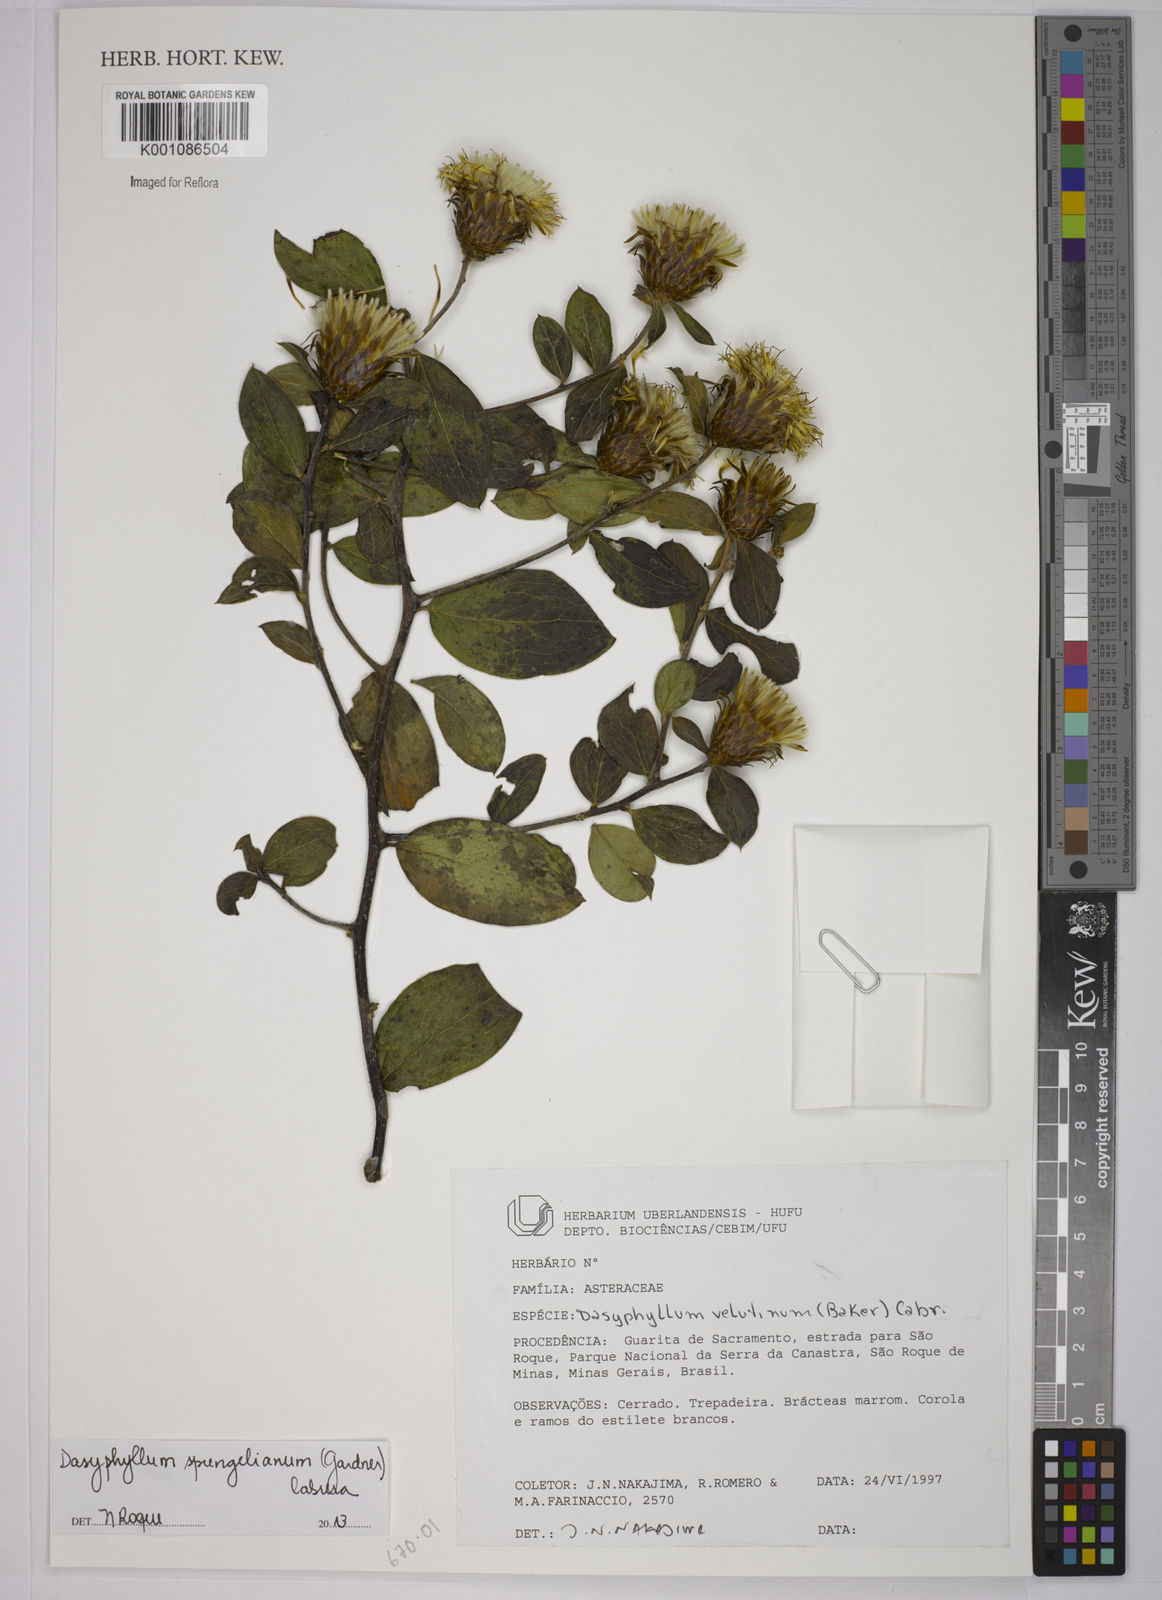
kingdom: Plantae
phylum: Tracheophyta
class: Magnoliopsida
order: Asterales
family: Asteraceae
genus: Dasyphyllum
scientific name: Dasyphyllum sprengelianum
